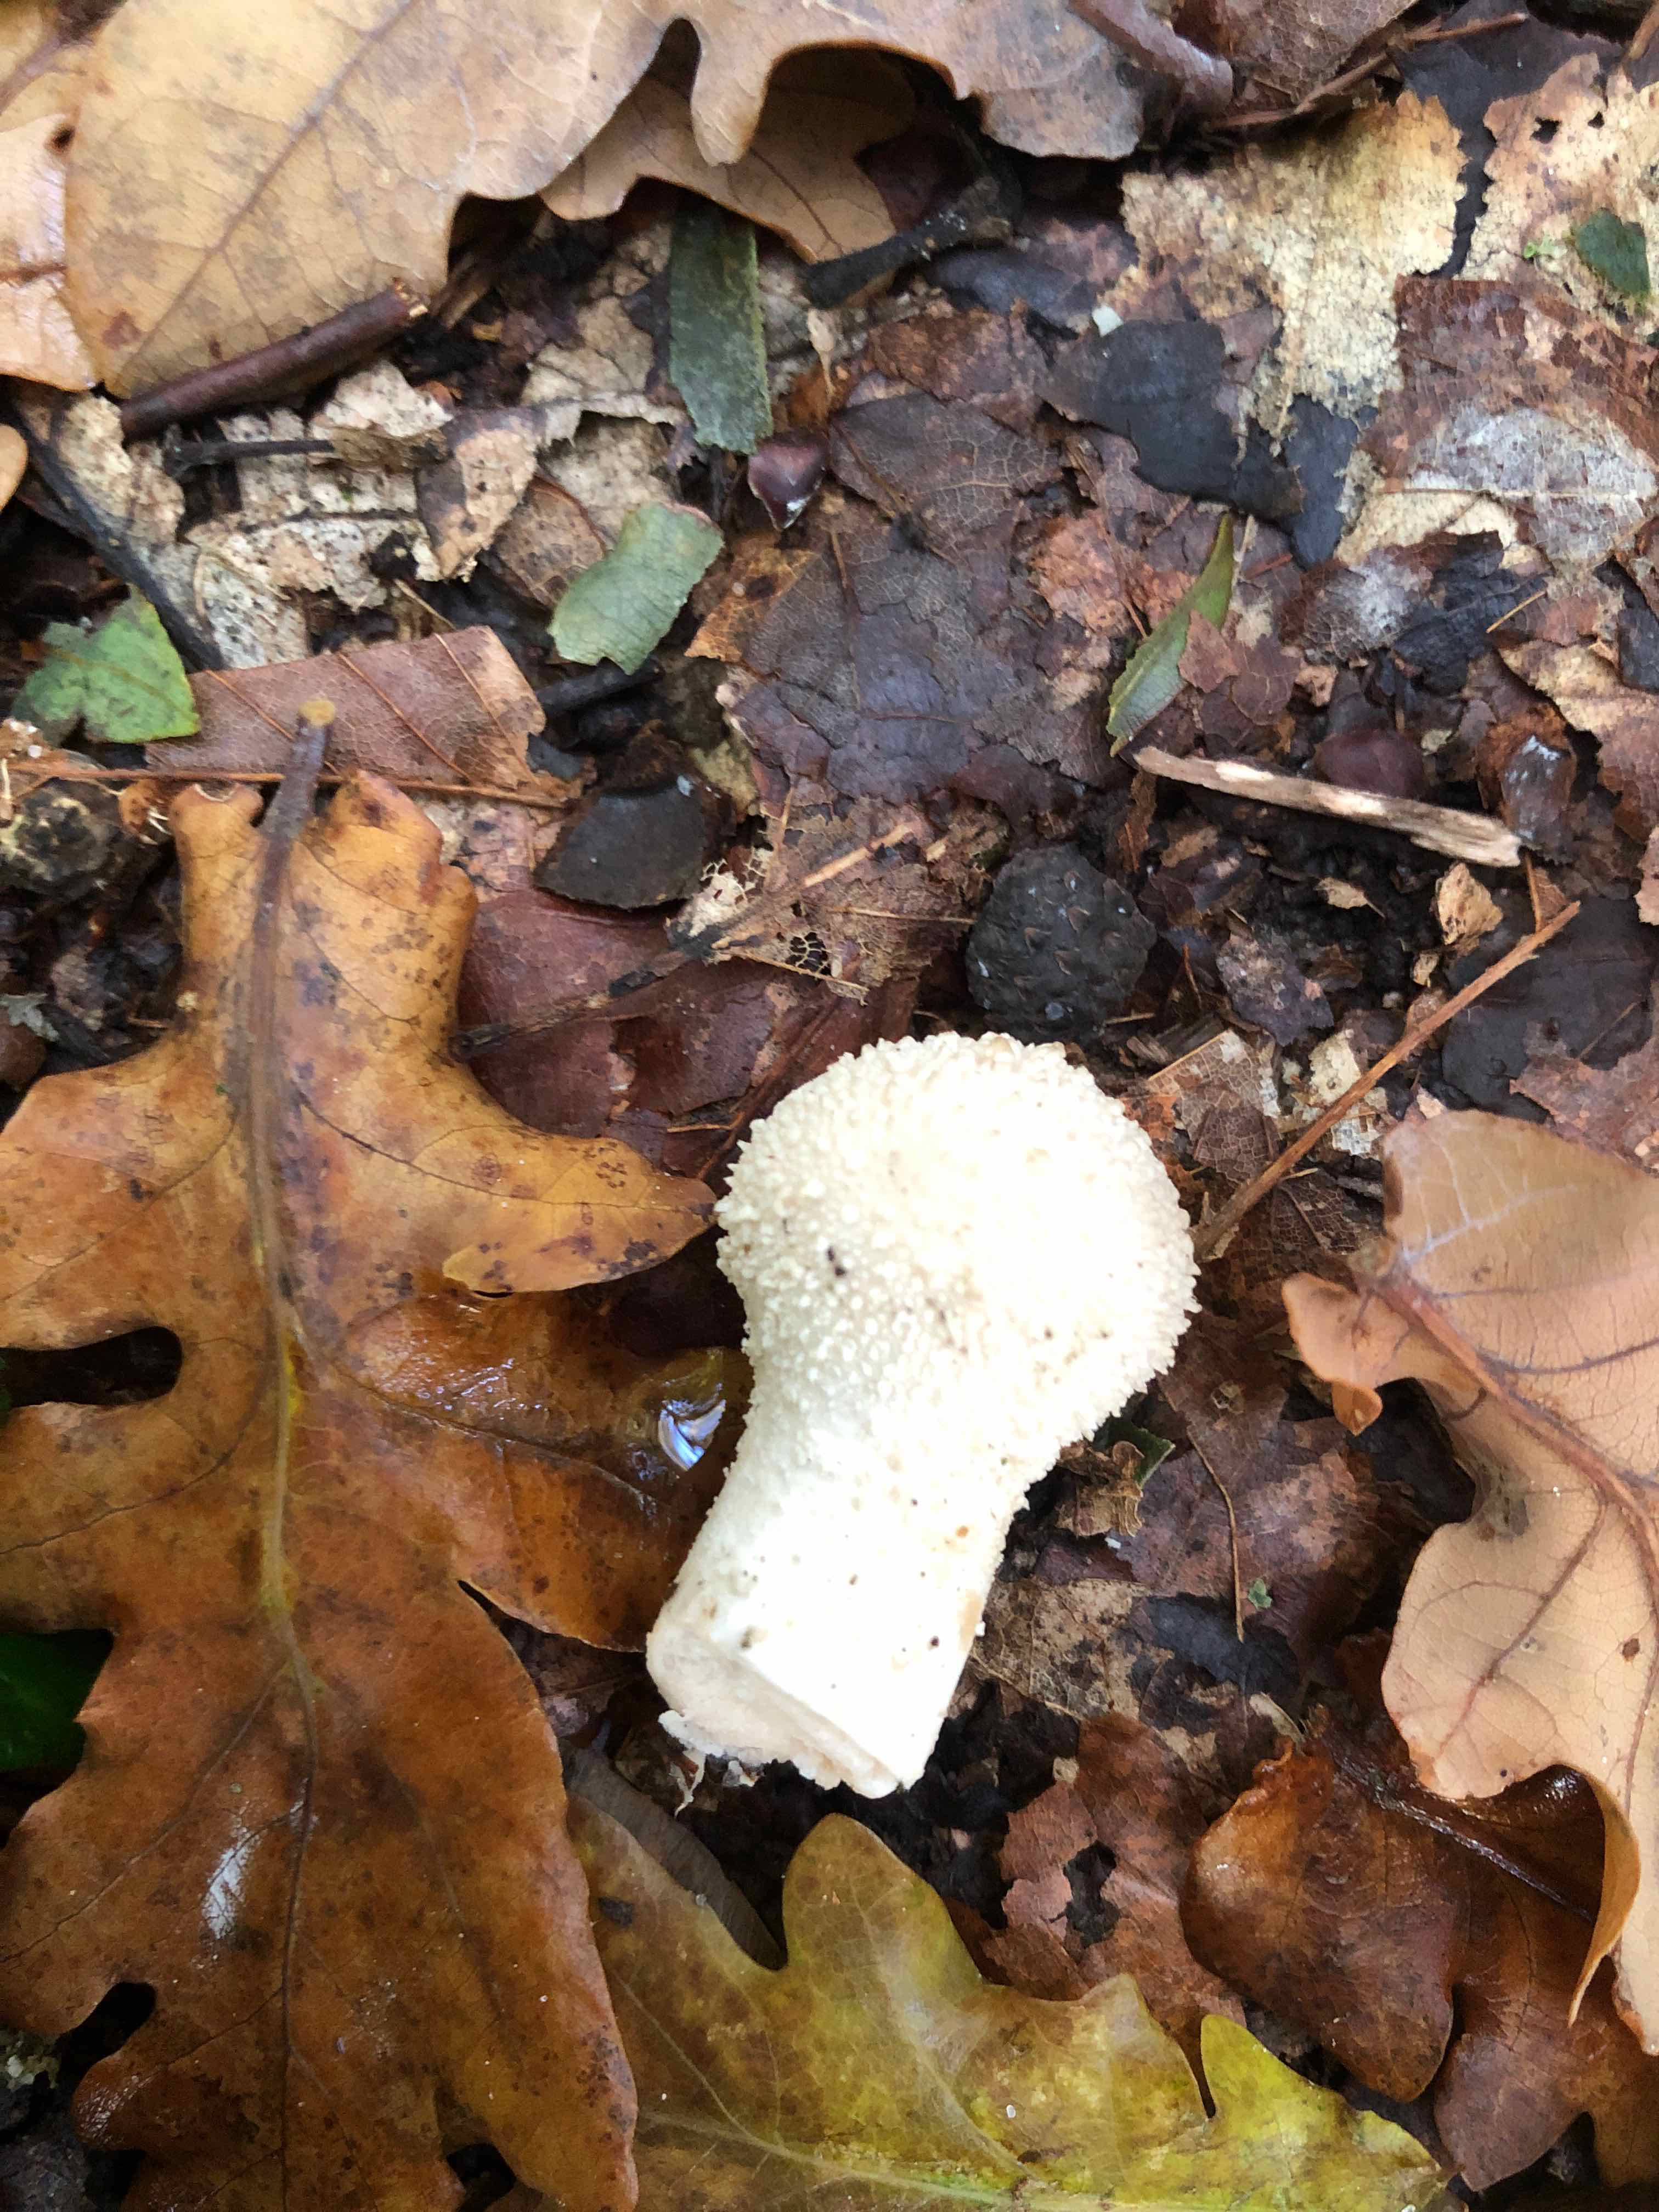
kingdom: Fungi
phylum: Basidiomycota
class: Agaricomycetes
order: Agaricales
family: Lycoperdaceae
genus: Lycoperdon
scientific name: Lycoperdon perlatum
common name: krystal-støvbold
